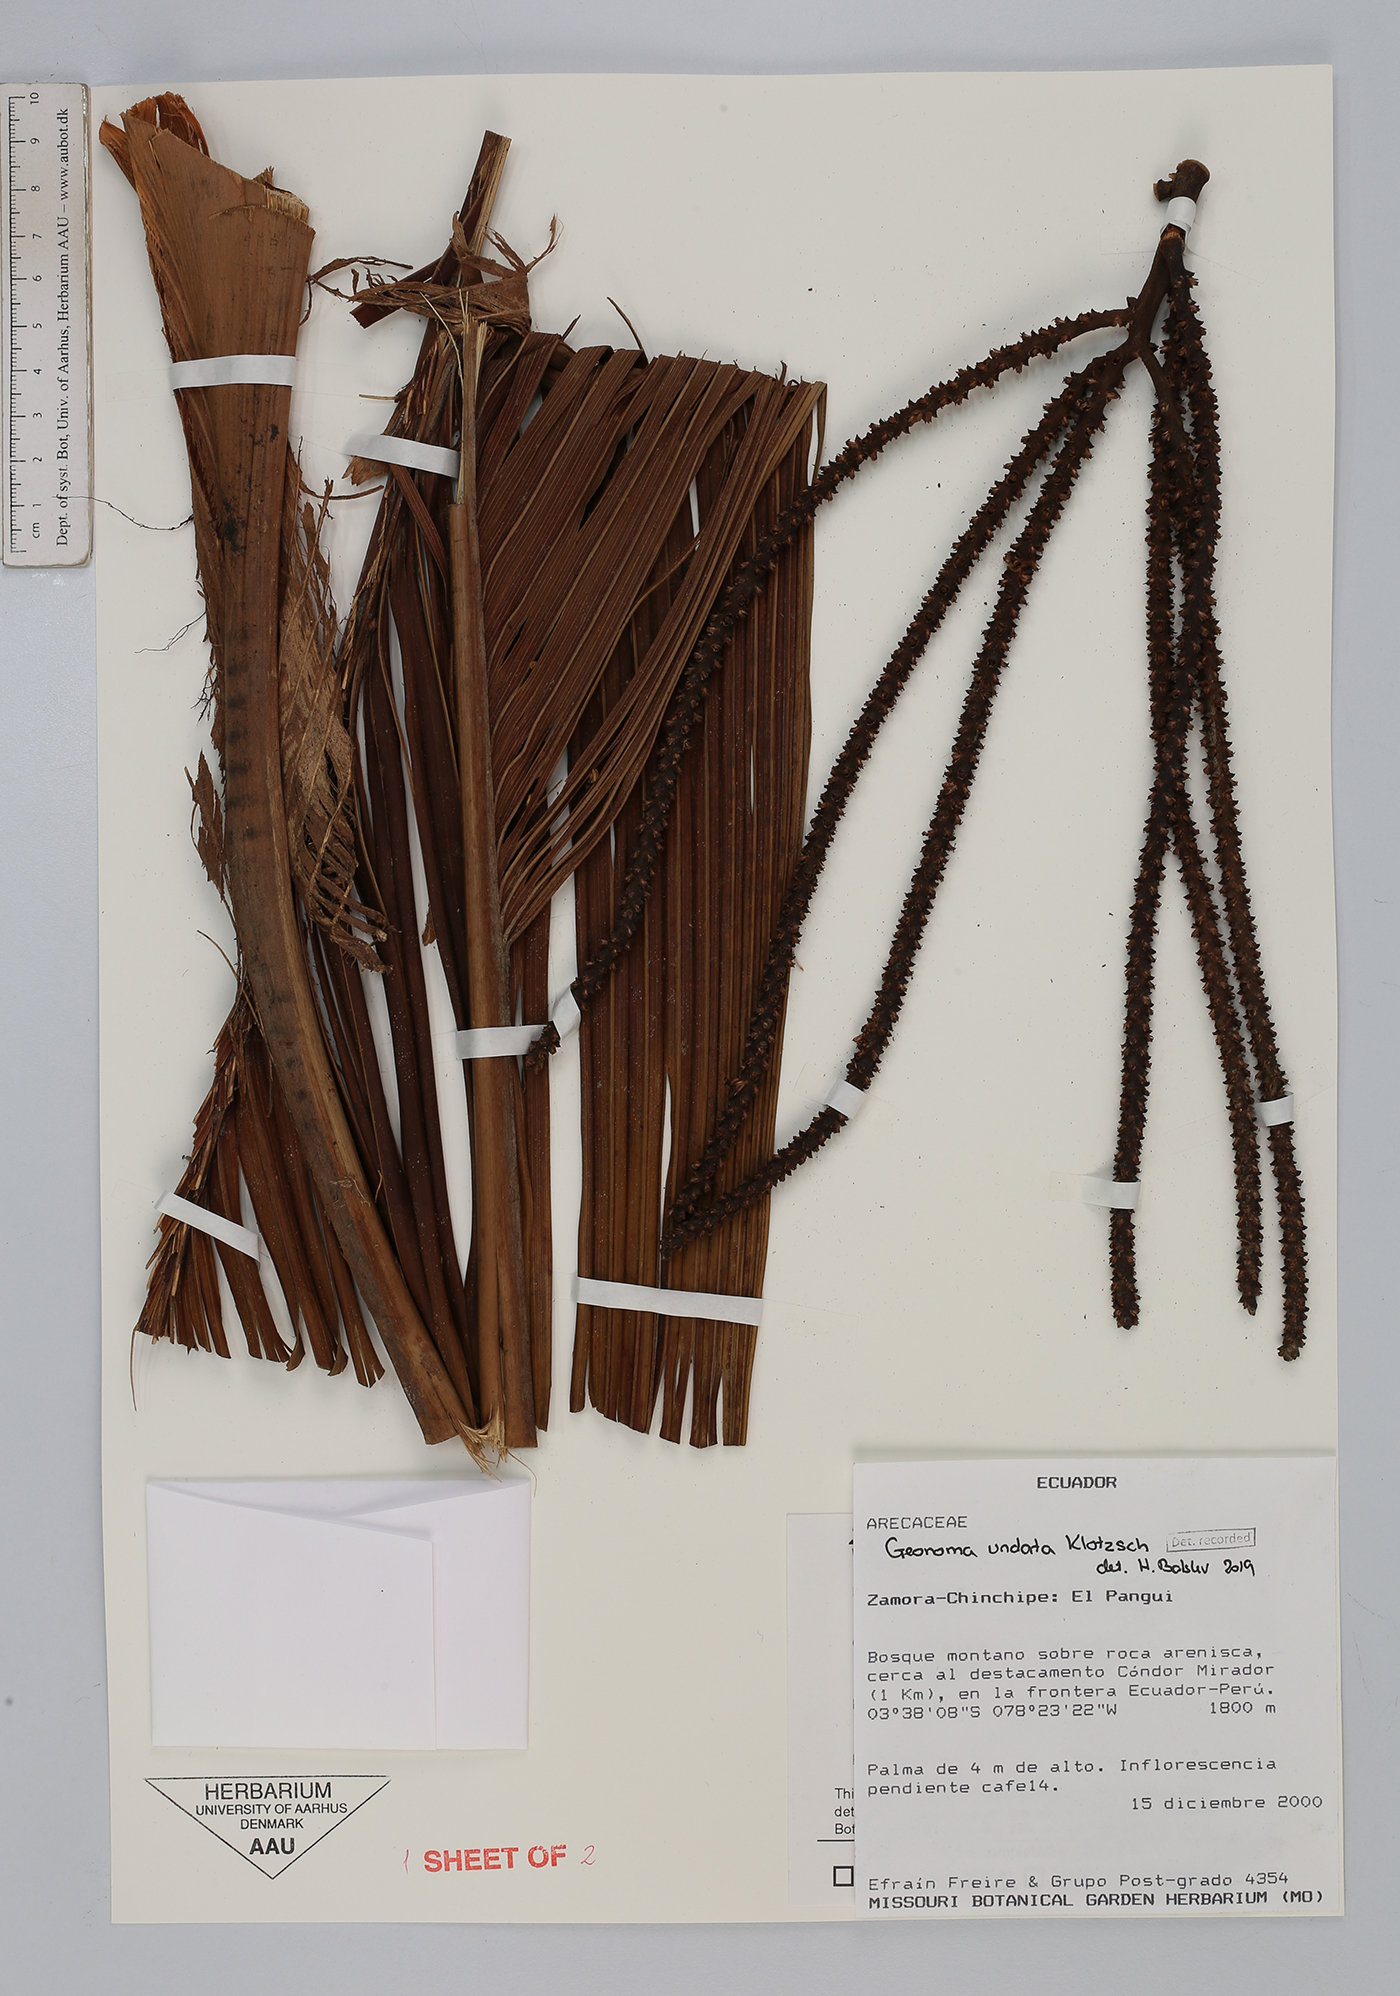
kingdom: Plantae
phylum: Tracheophyta
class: Liliopsida
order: Arecales
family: Arecaceae
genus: Geonoma
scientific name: Geonoma undata
